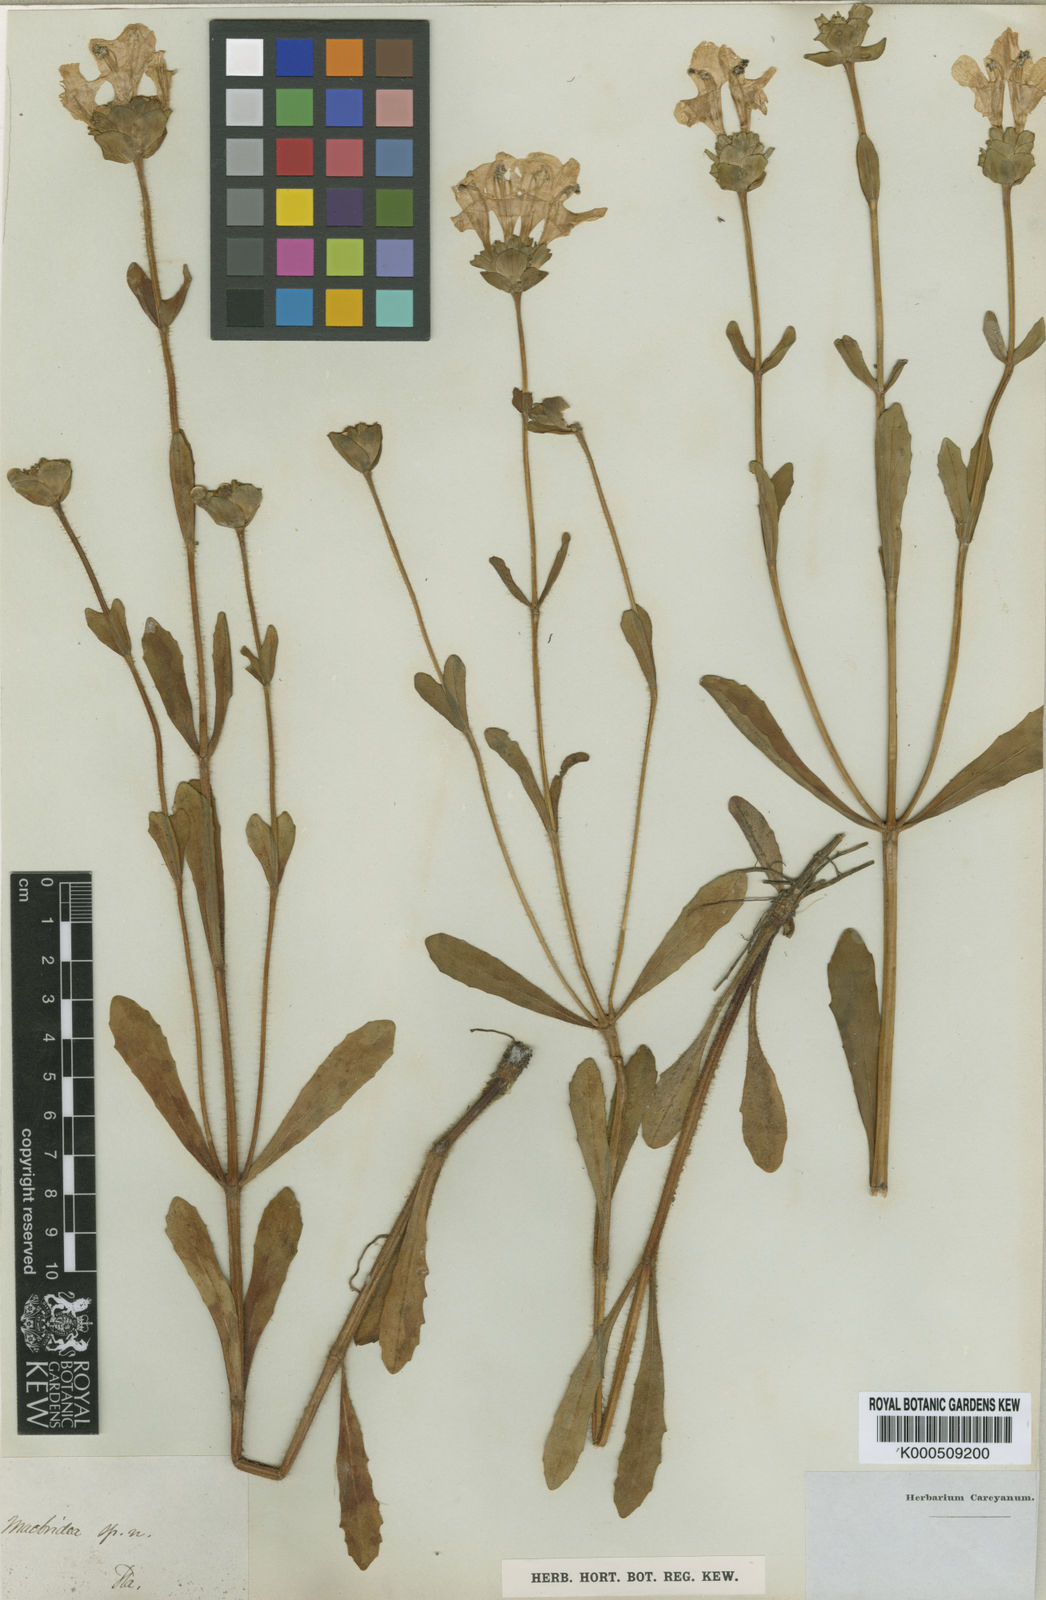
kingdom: Plantae
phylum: Tracheophyta
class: Magnoliopsida
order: Lamiales
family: Lamiaceae
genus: Macbridea
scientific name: Macbridea alba
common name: White birds in-a-nest
